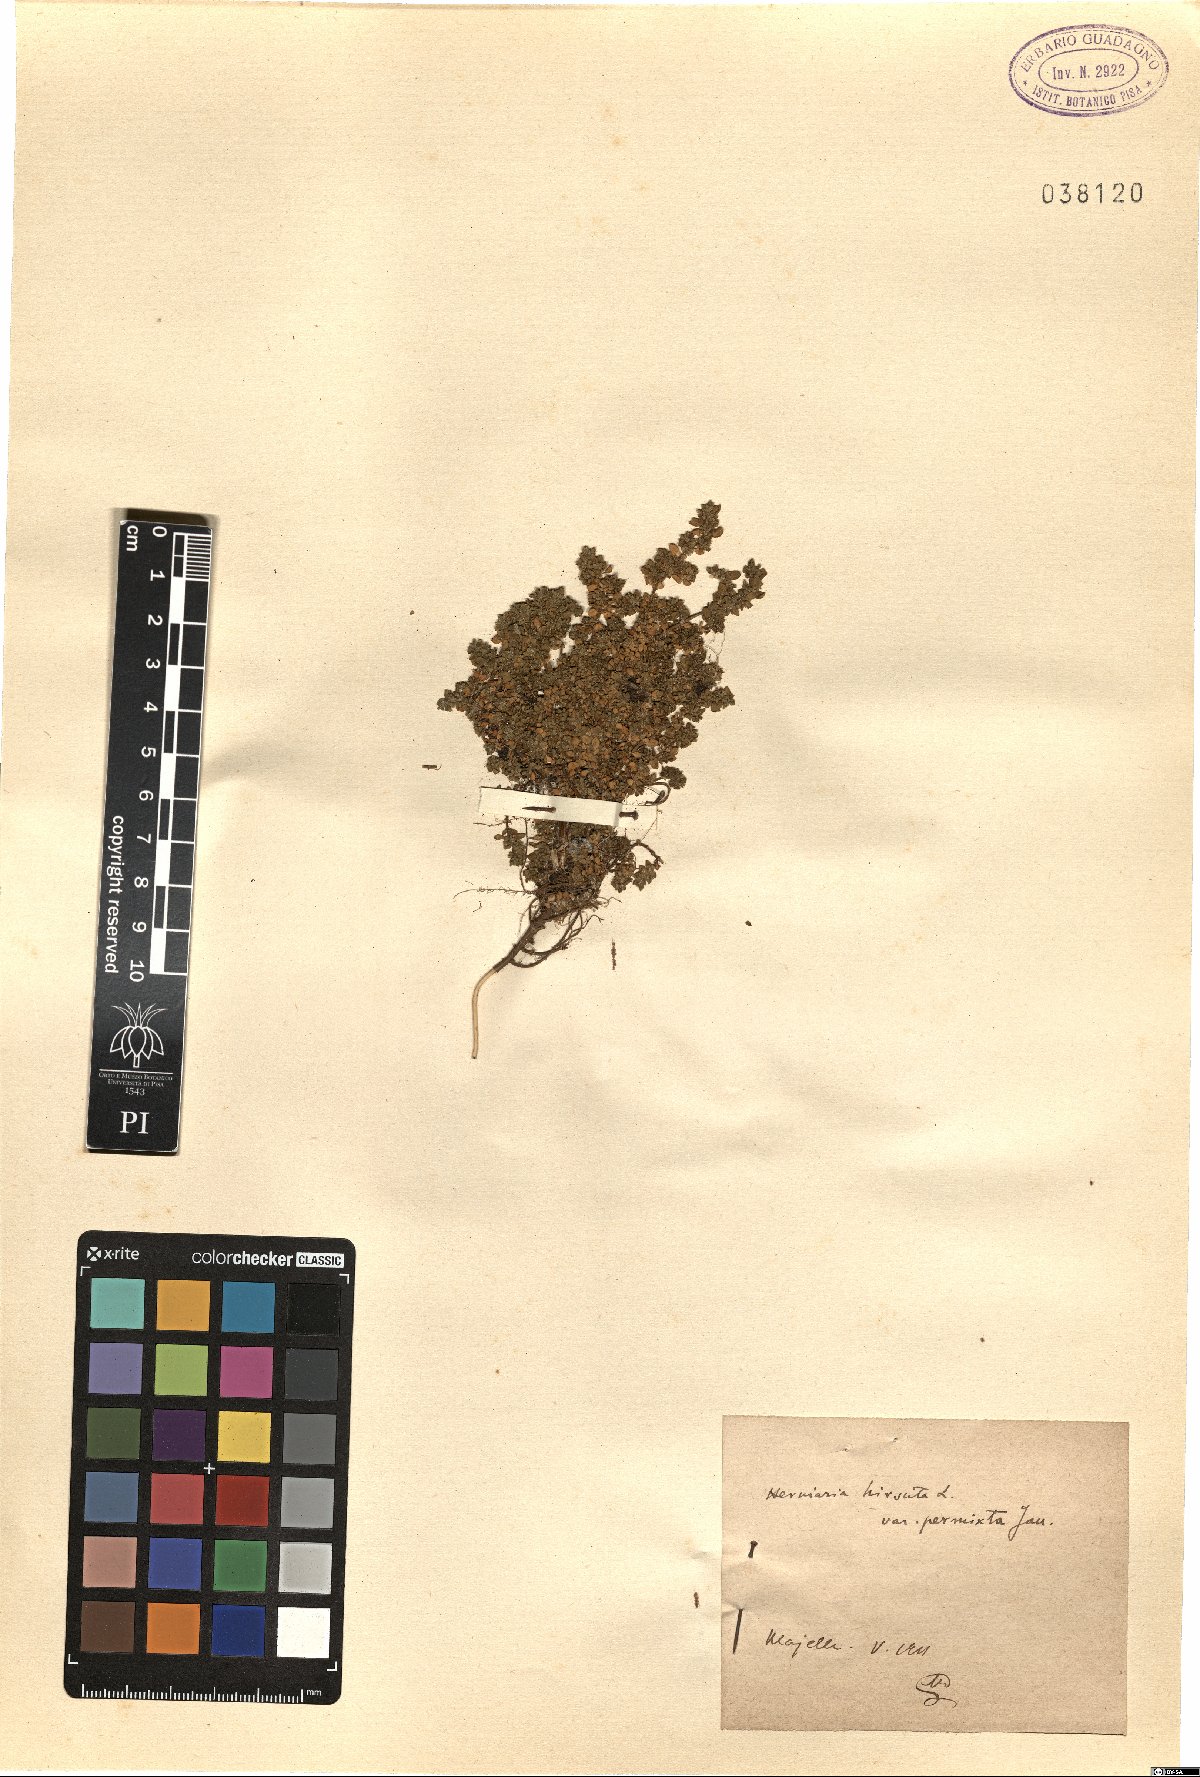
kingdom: Plantae
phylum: Tracheophyta
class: Magnoliopsida
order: Caryophyllales
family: Caryophyllaceae
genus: Herniaria
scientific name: Herniaria hirsuta
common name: Hairy rupturewort
